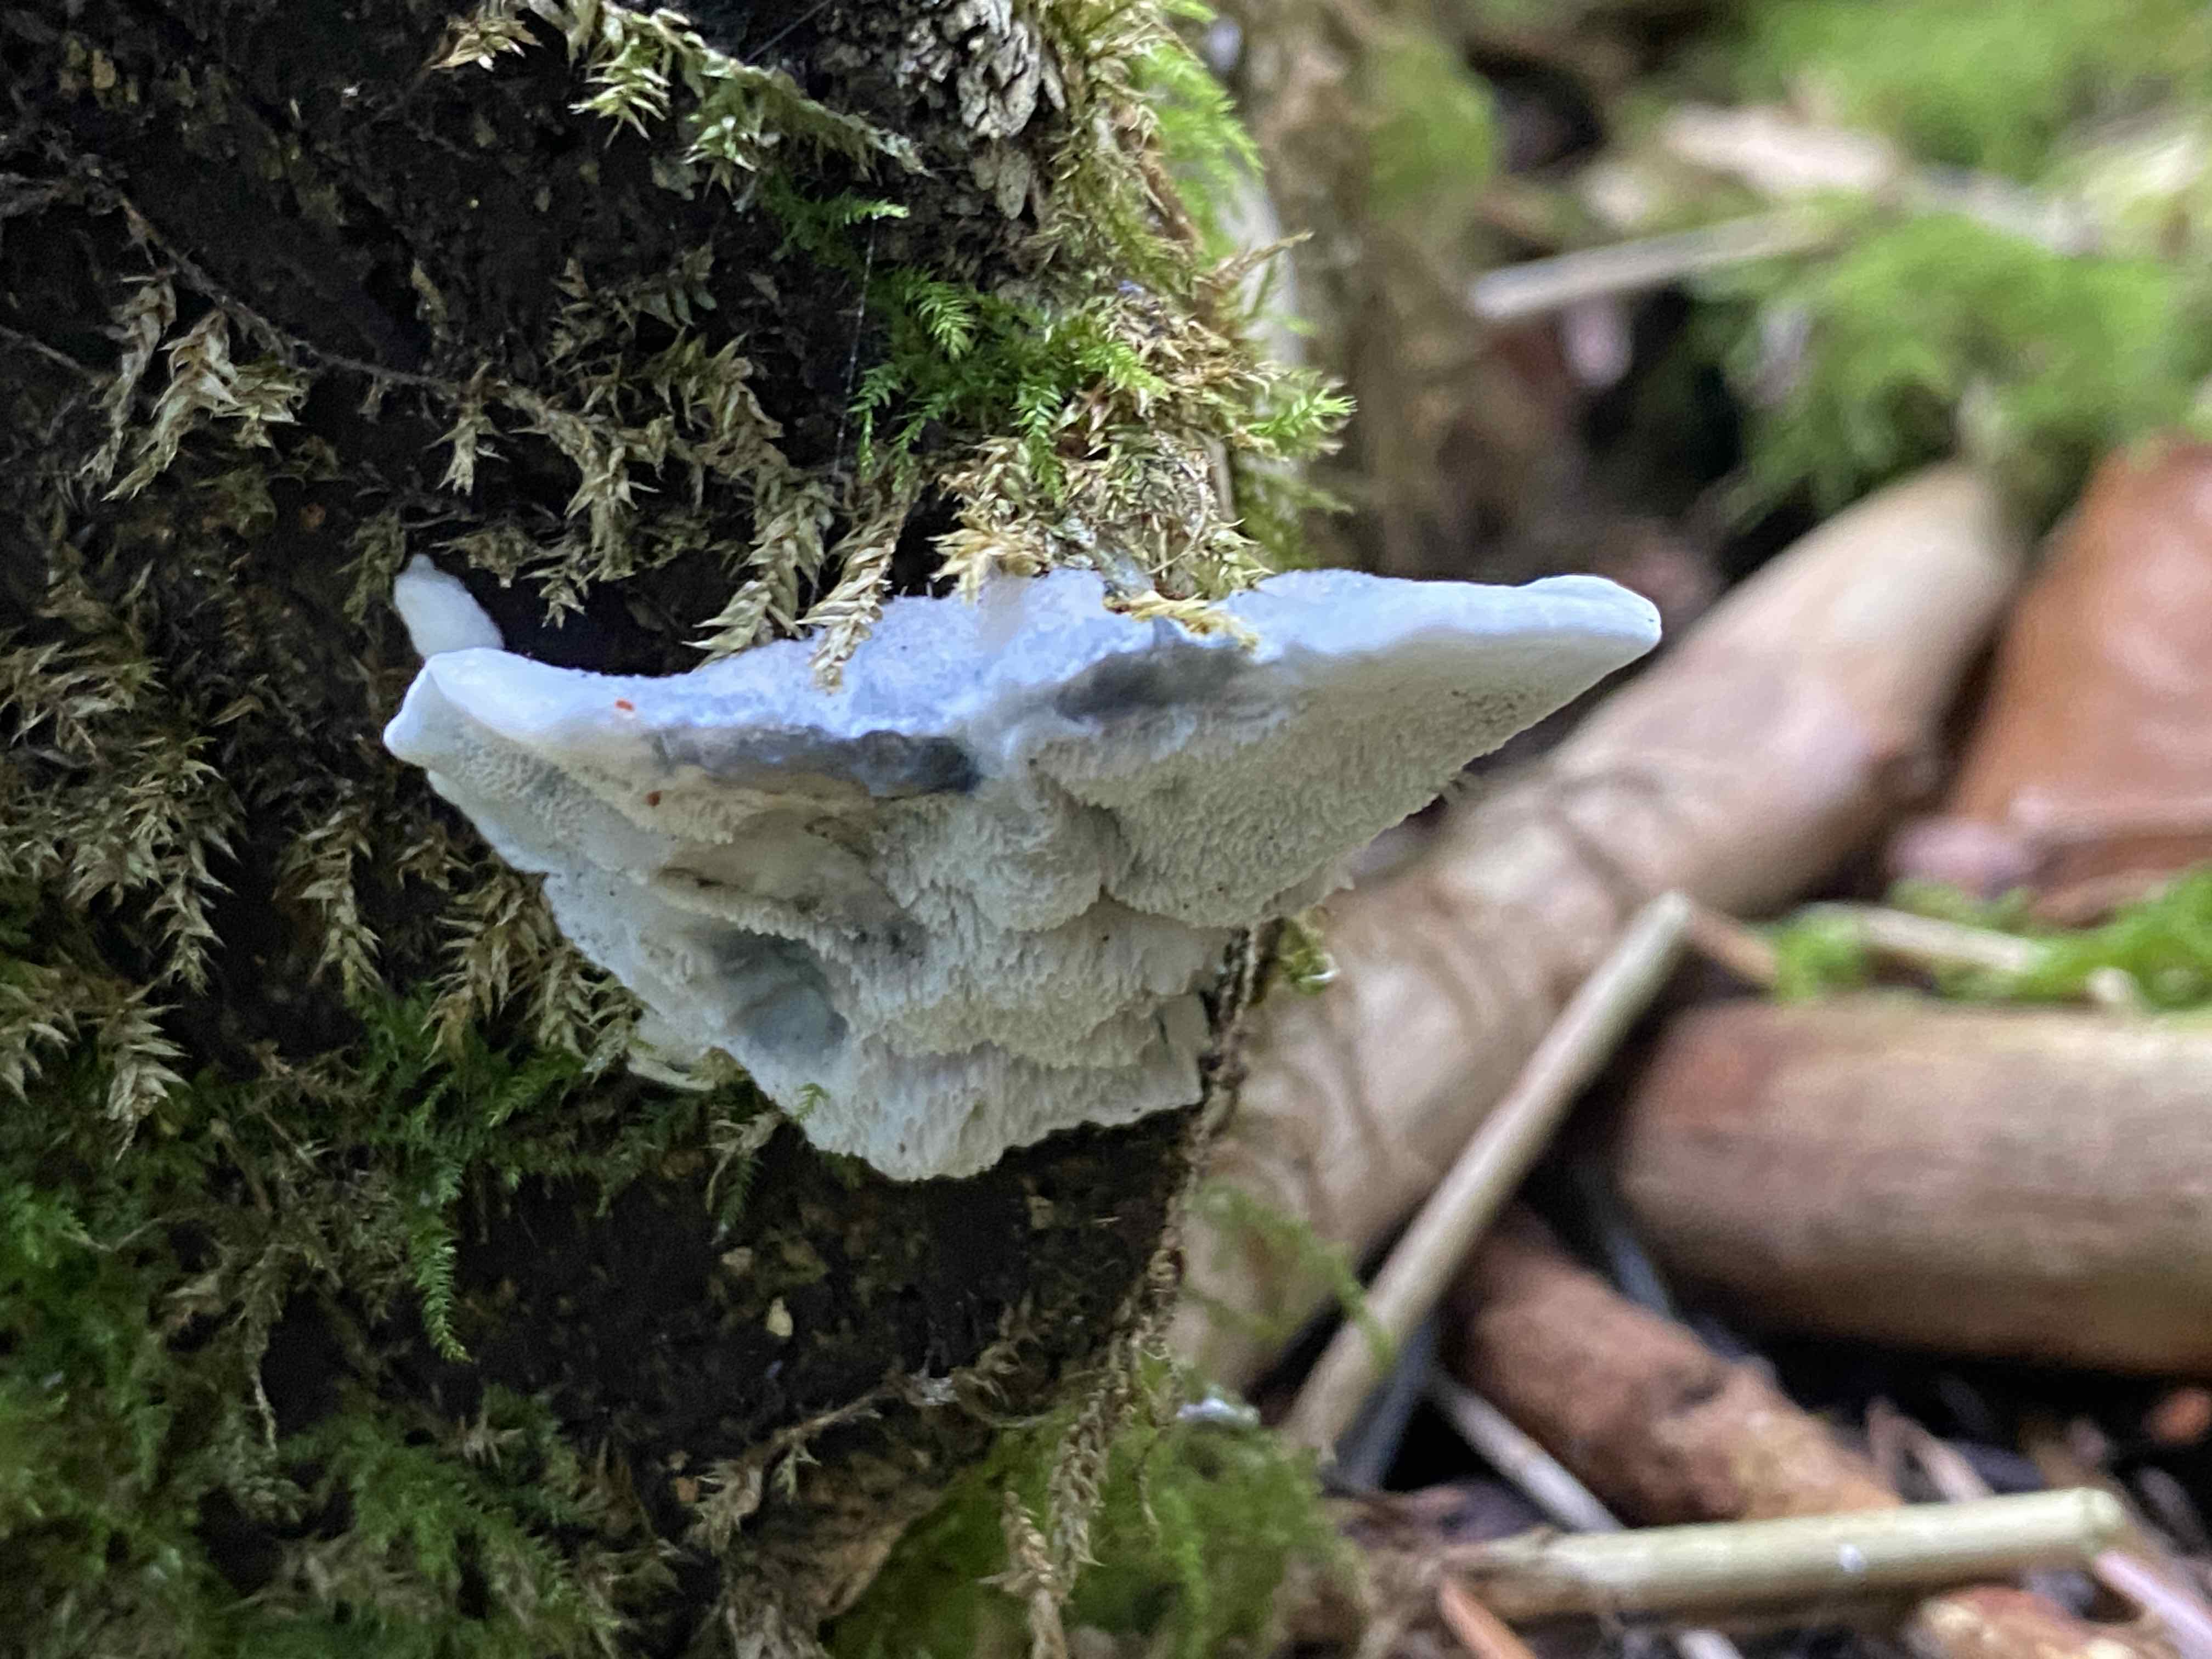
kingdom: Fungi
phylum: Basidiomycota
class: Agaricomycetes
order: Polyporales
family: Polyporaceae
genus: Cyanosporus
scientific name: Cyanosporus caesius
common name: blålig kødporesvamp
